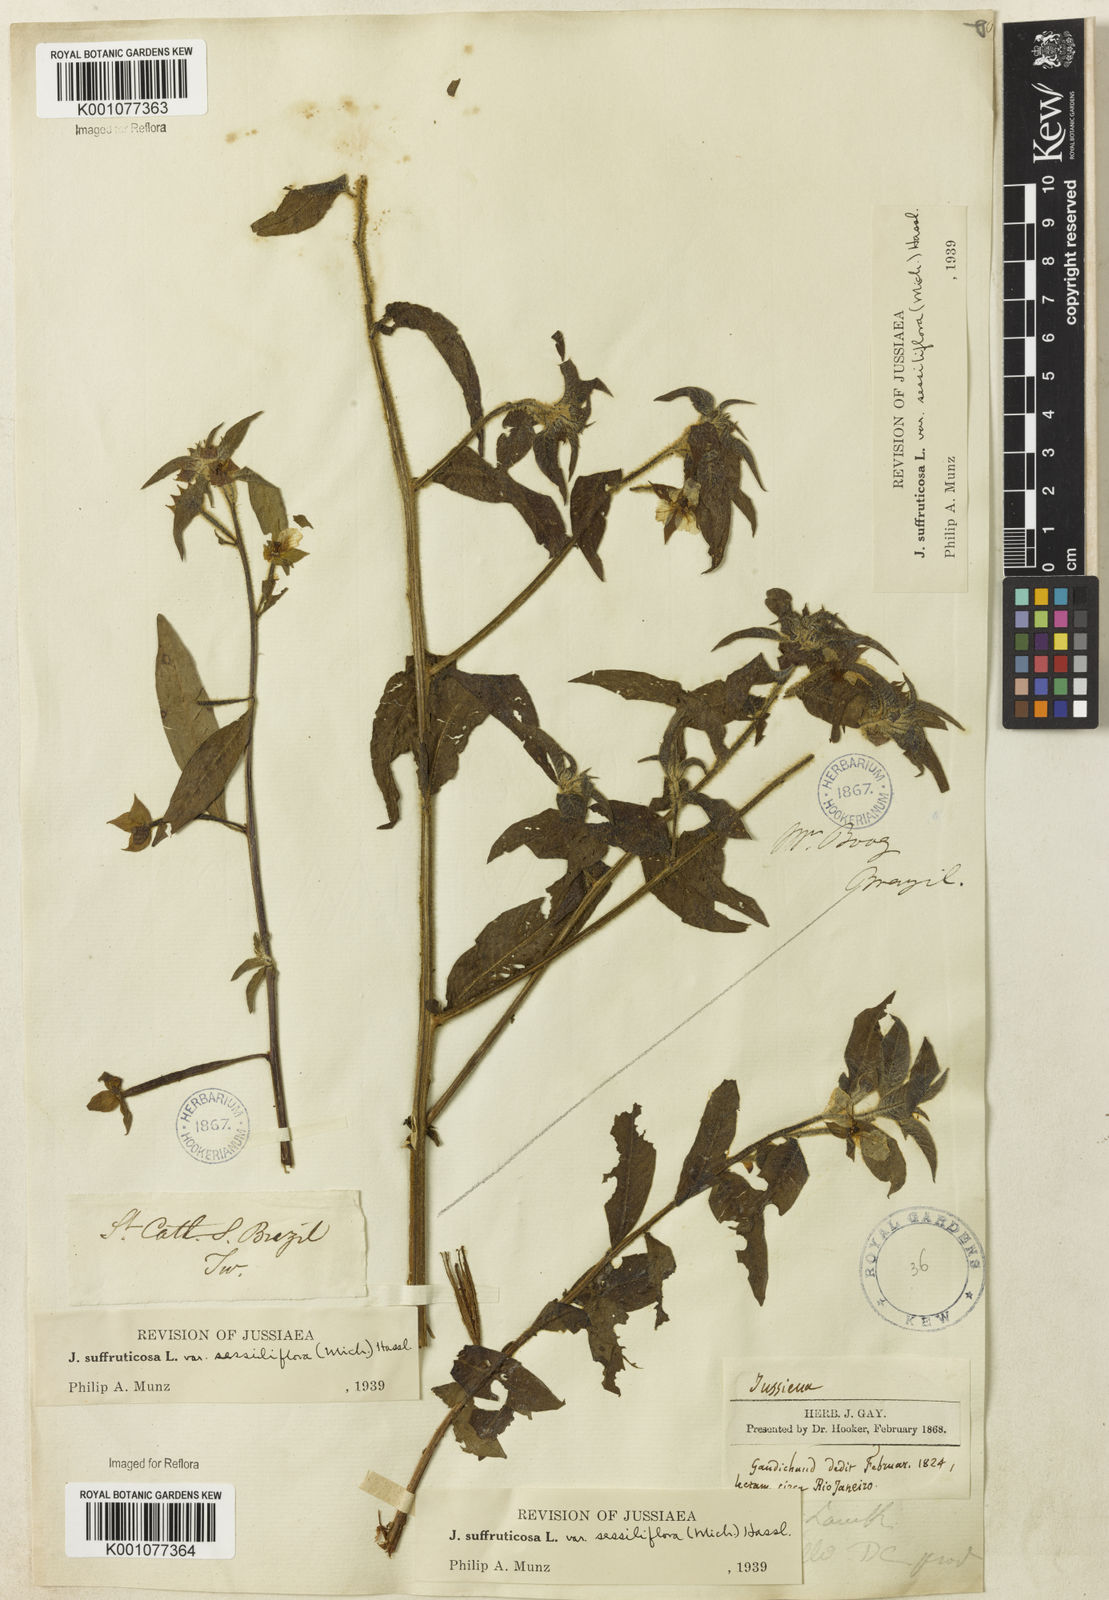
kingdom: Plantae
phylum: Tracheophyta
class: Magnoliopsida
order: Myrtales
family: Onagraceae
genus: Ludwigia
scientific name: Ludwigia octovalvis
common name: Water-primrose
